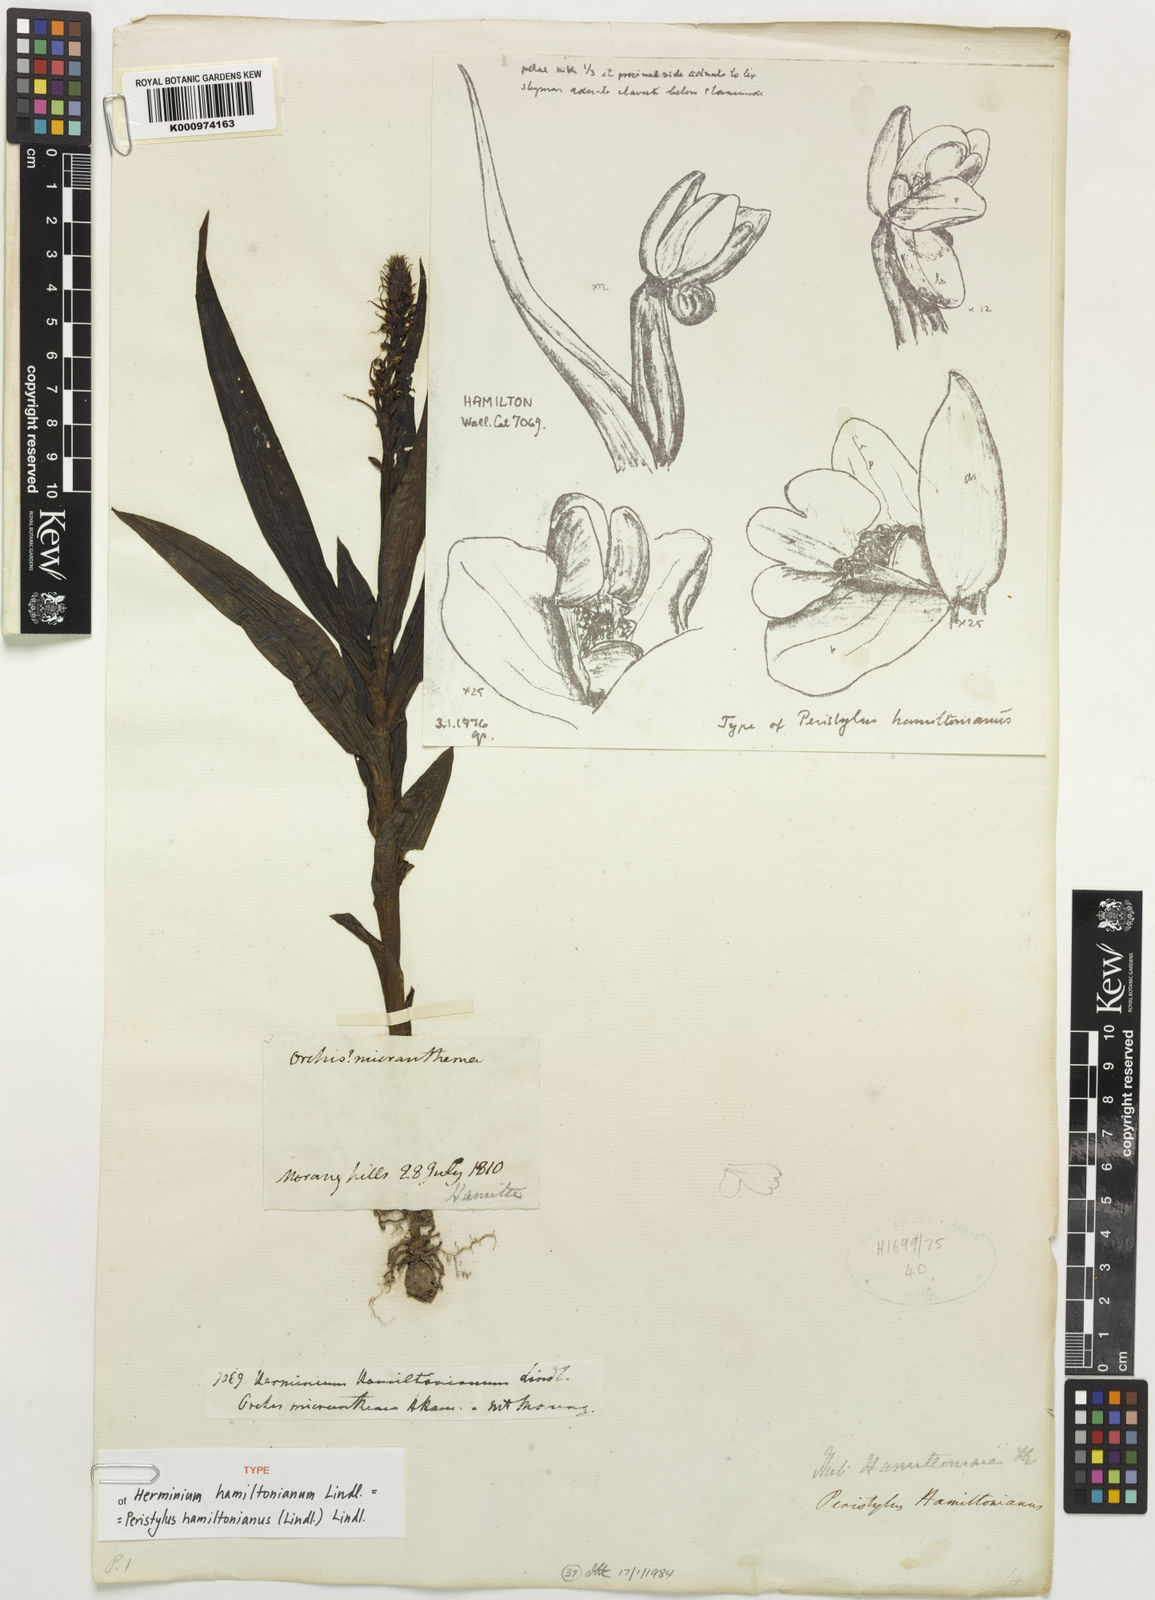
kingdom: Plantae
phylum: Tracheophyta
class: Liliopsida
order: Asparagales
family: Orchidaceae
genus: Peristylus
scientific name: Peristylus hamiltonianus
